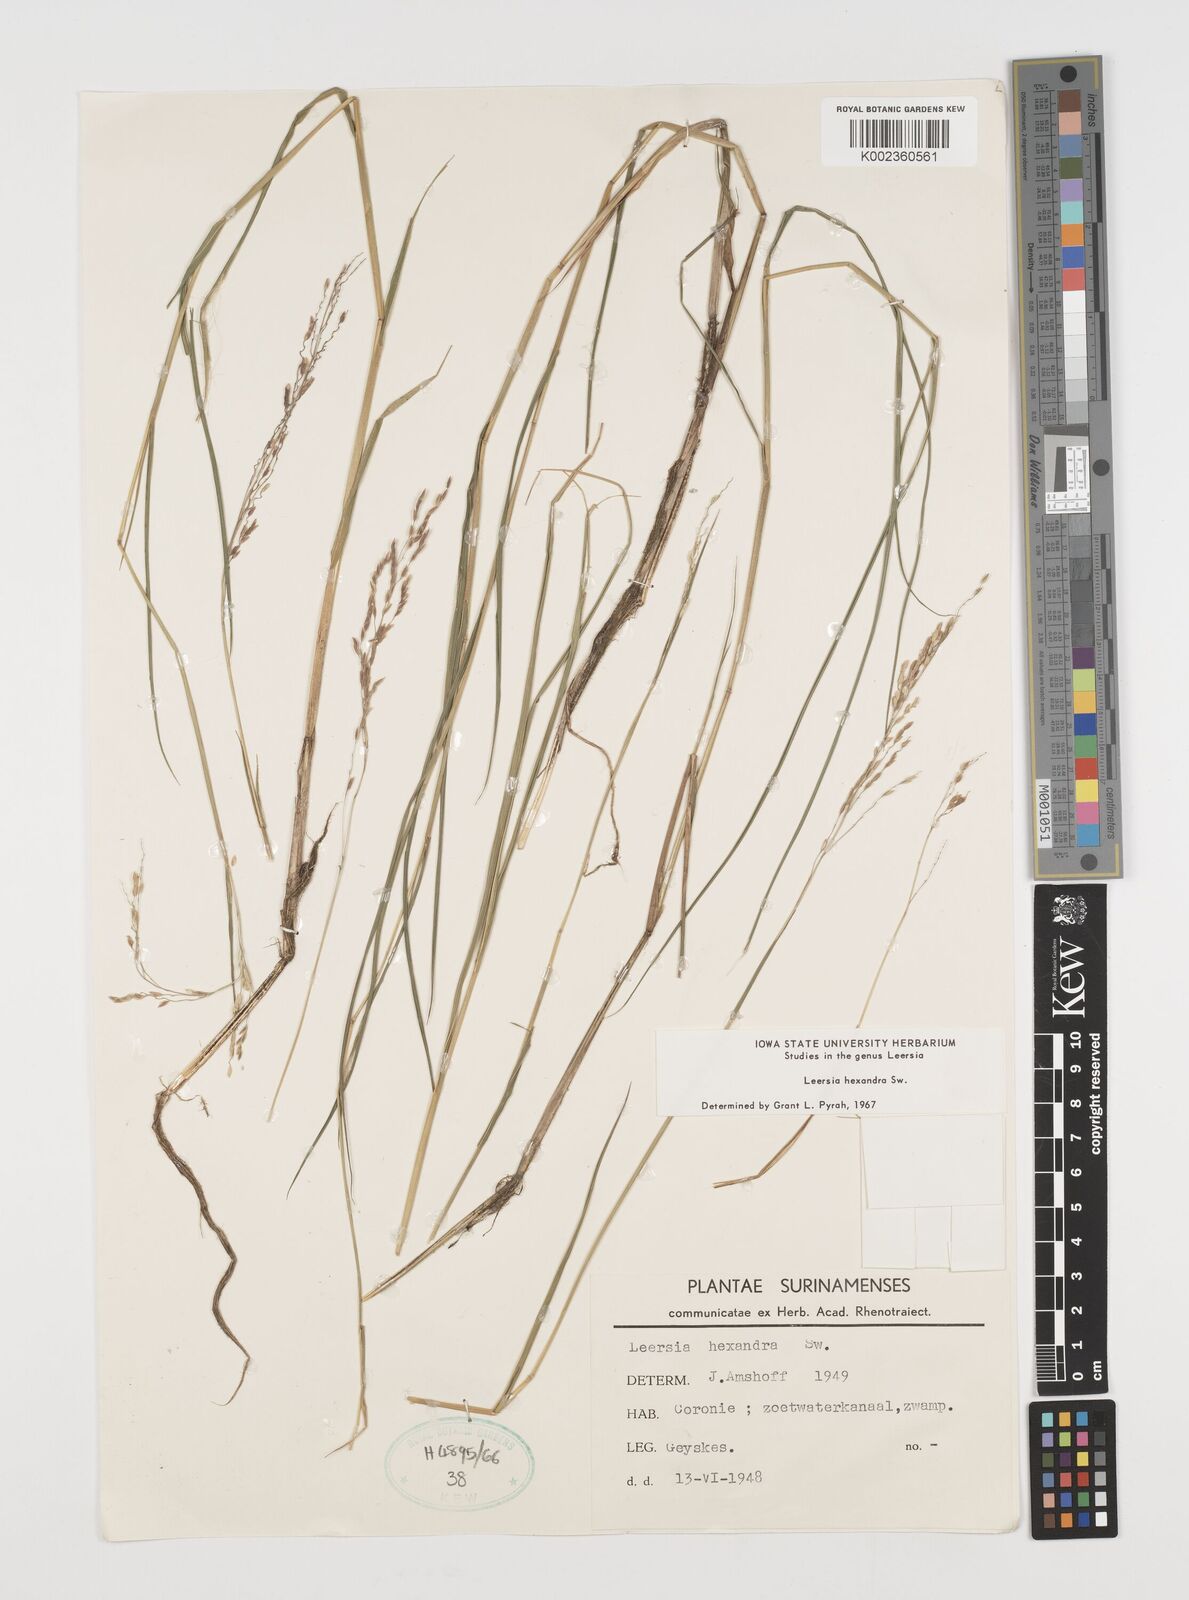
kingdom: Plantae
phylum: Tracheophyta
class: Liliopsida
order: Poales
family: Poaceae
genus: Leersia
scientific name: Leersia hexandra
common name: Southern cut grass
